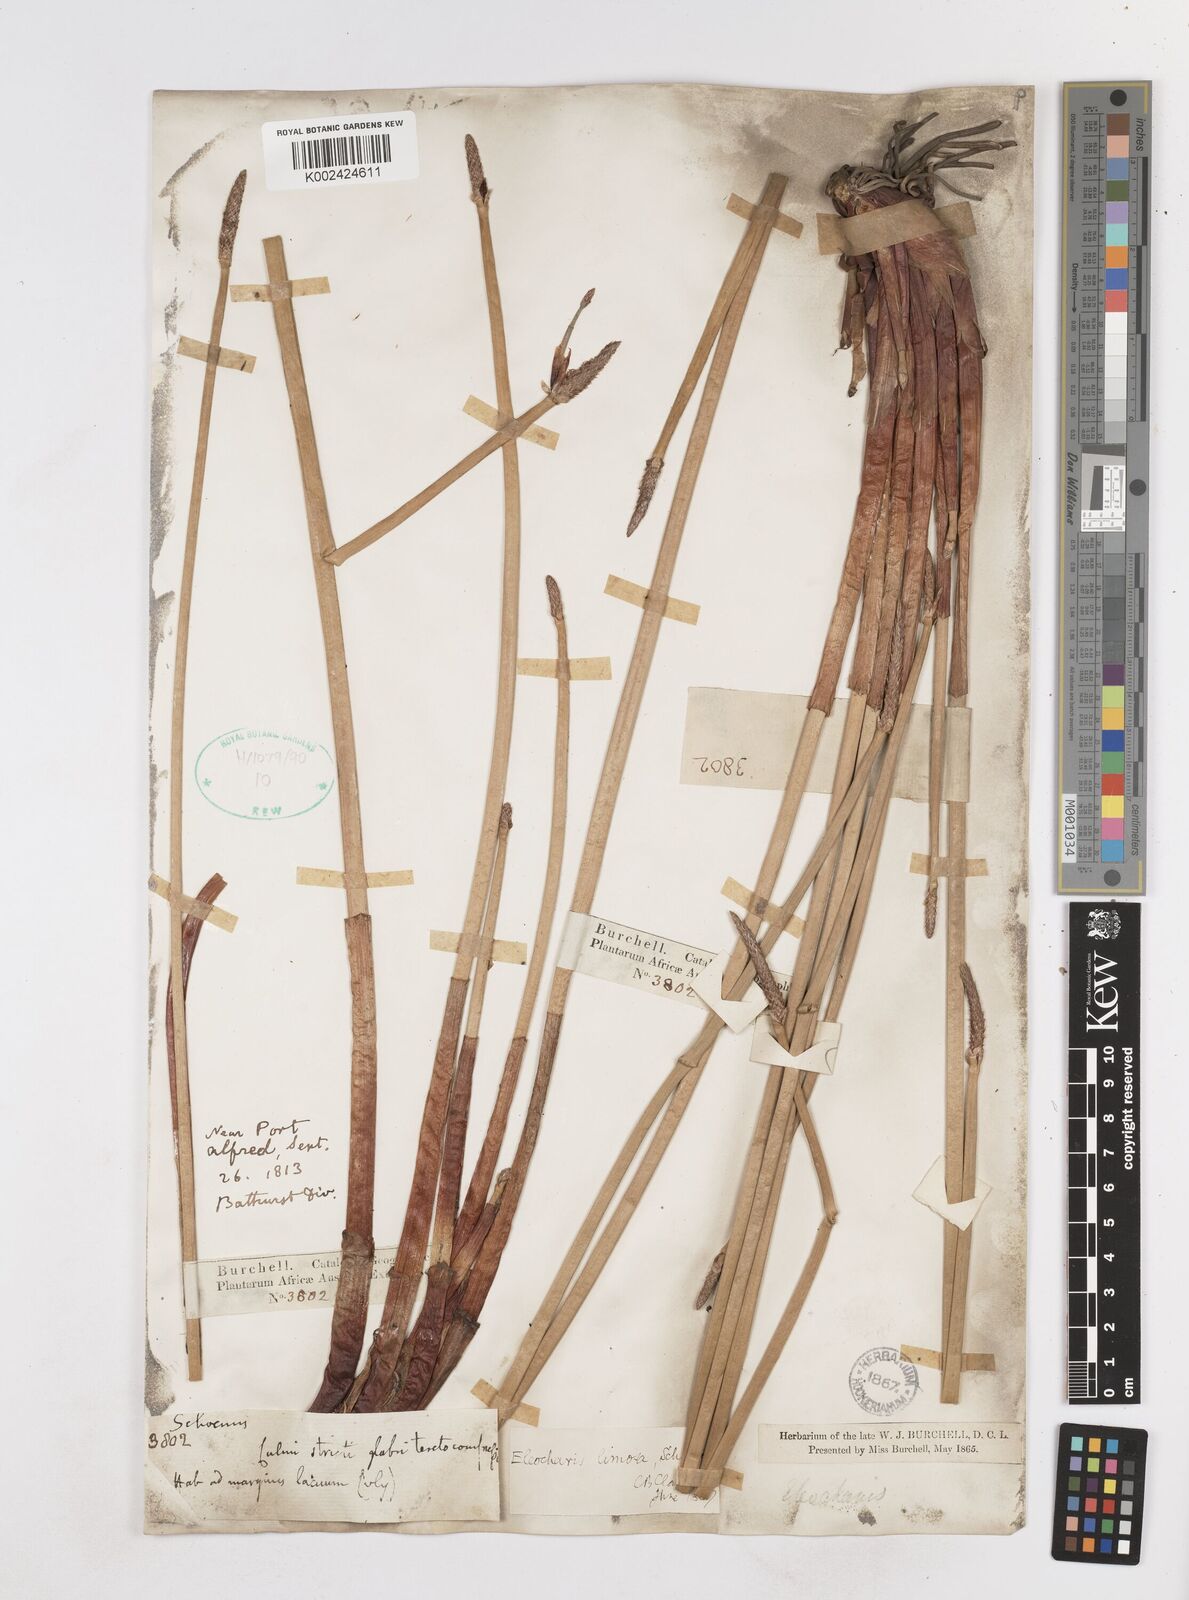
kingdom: Plantae
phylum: Tracheophyta
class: Liliopsida
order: Poales
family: Cyperaceae
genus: Eleocharis
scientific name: Eleocharis limosa
